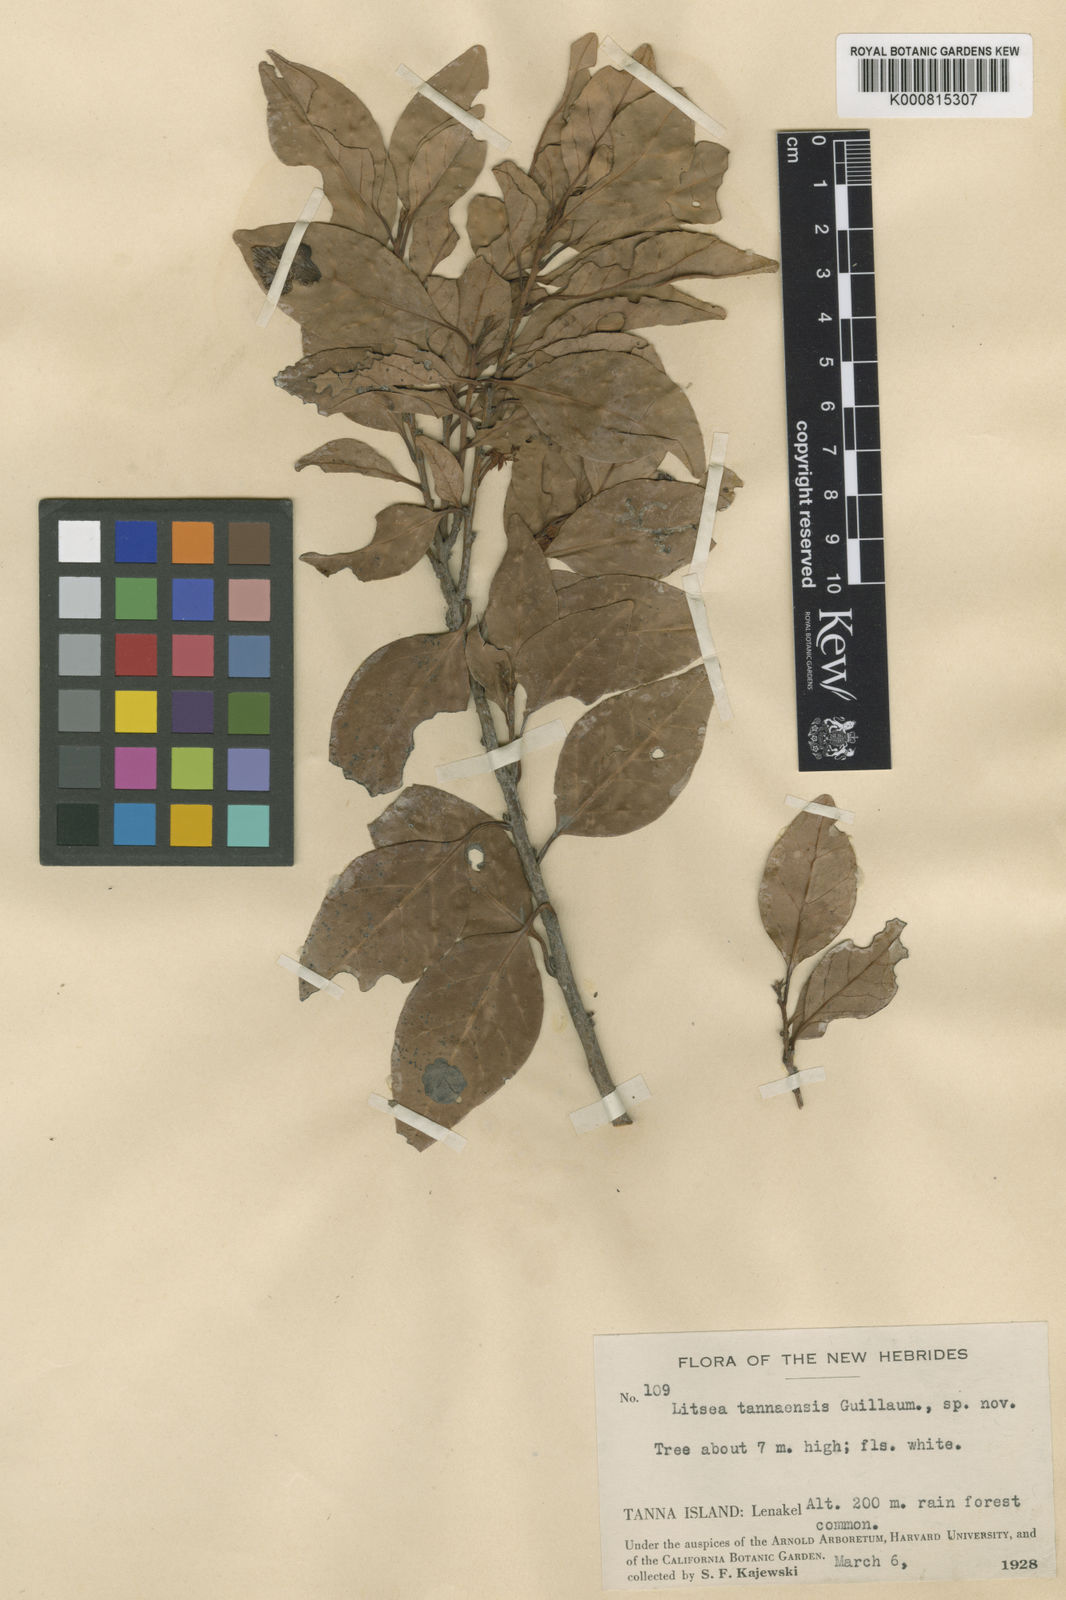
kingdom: Plantae
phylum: Tracheophyta
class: Magnoliopsida
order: Laurales
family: Lauraceae
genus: Litsea
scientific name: Litsea tannaensis
